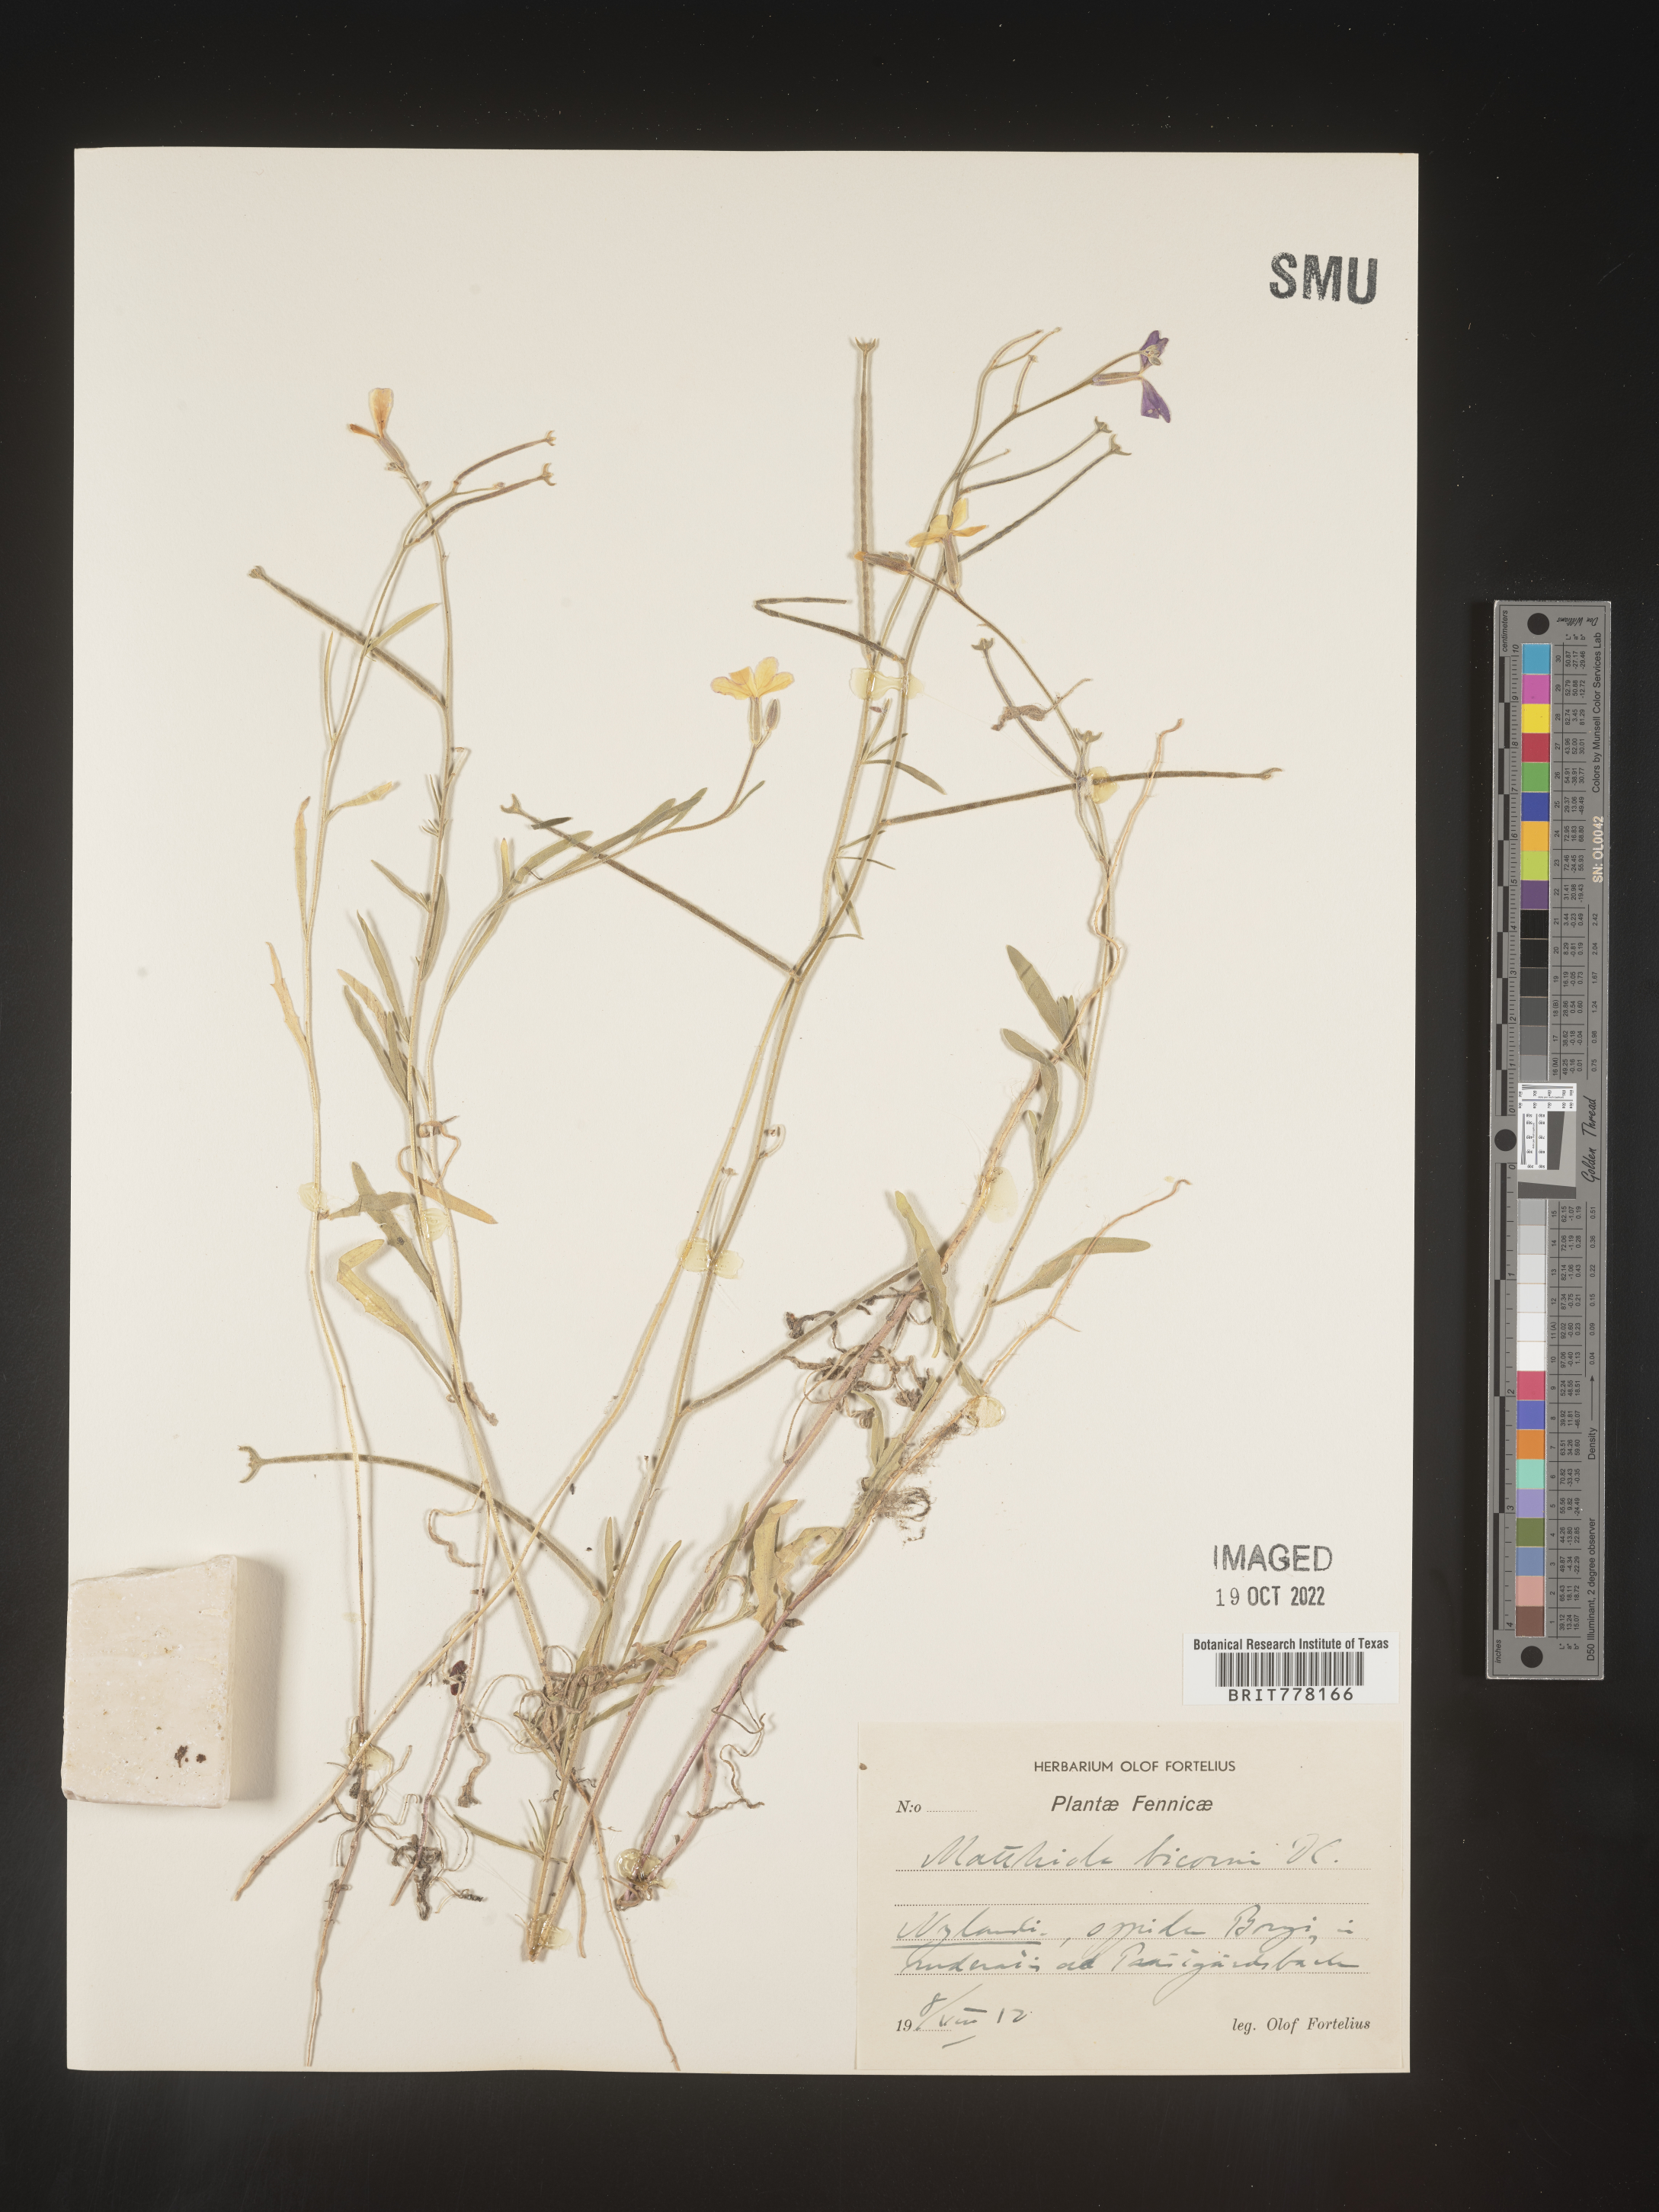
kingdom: Plantae
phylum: Tracheophyta
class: Magnoliopsida
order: Brassicales
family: Brassicaceae
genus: Matthiola
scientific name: Matthiola
